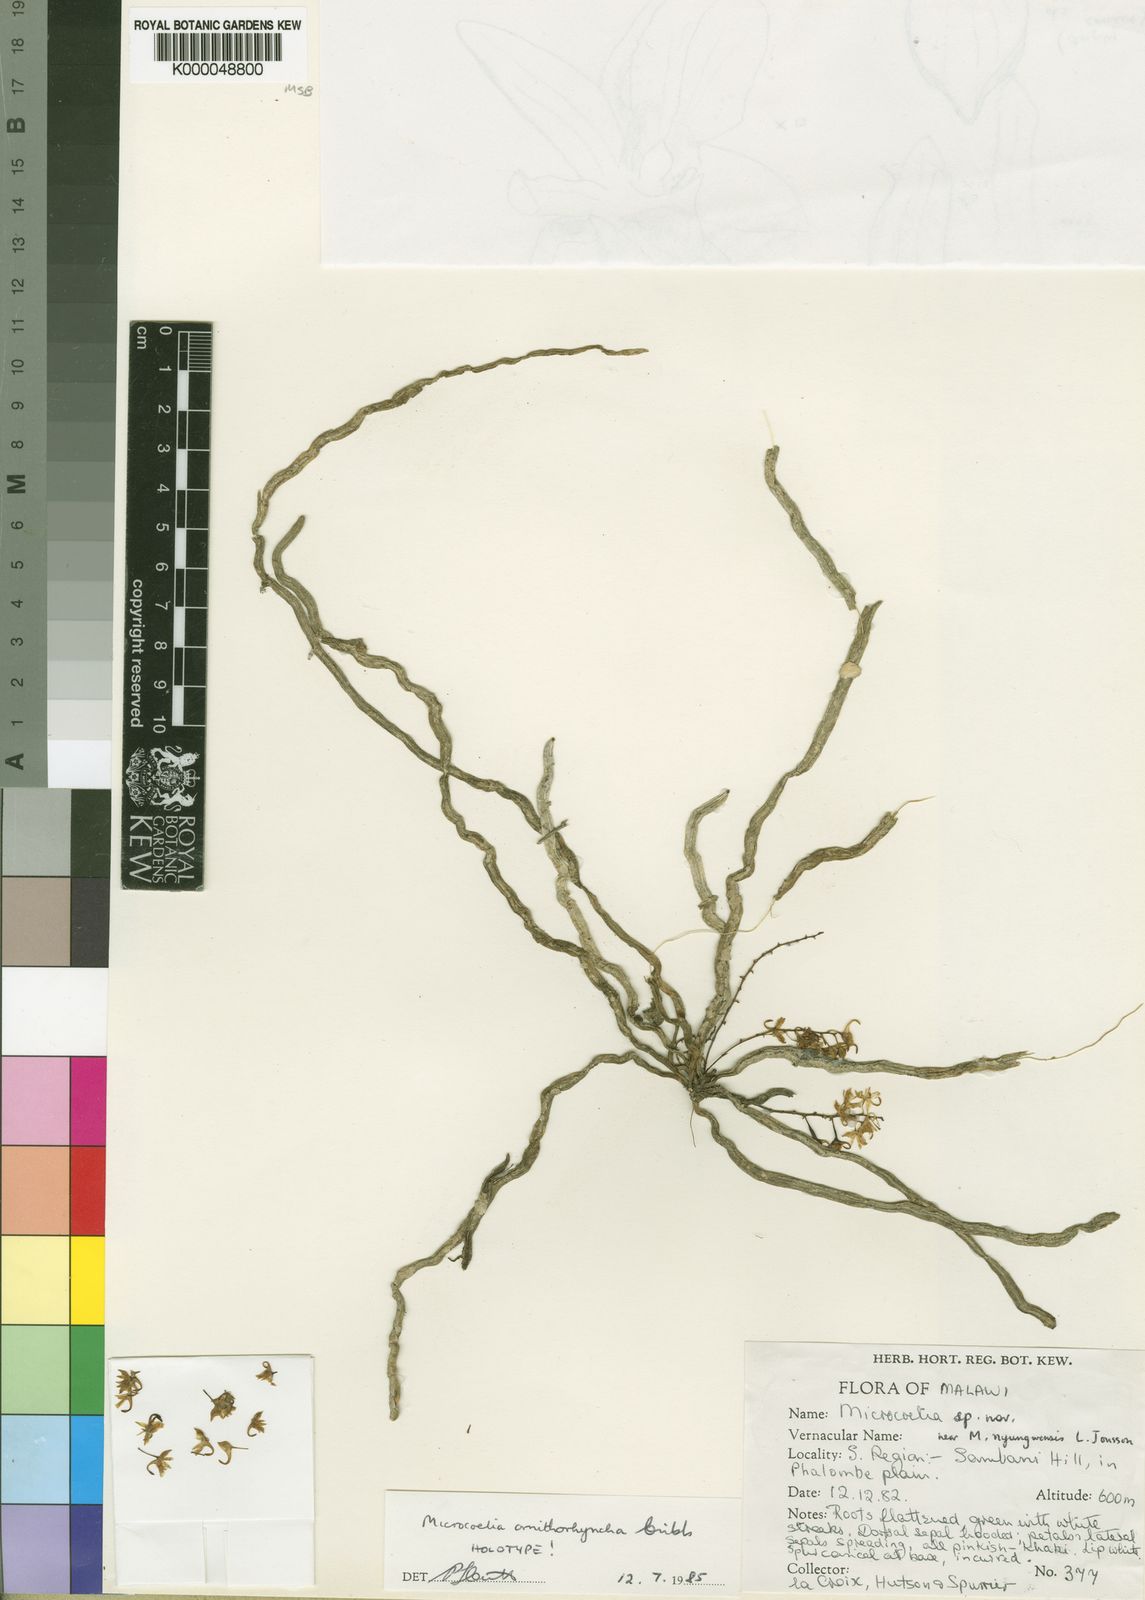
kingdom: Plantae
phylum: Tracheophyta
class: Liliopsida
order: Asparagales
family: Orchidaceae
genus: Microcoelia
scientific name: Microcoelia ornithocephala
